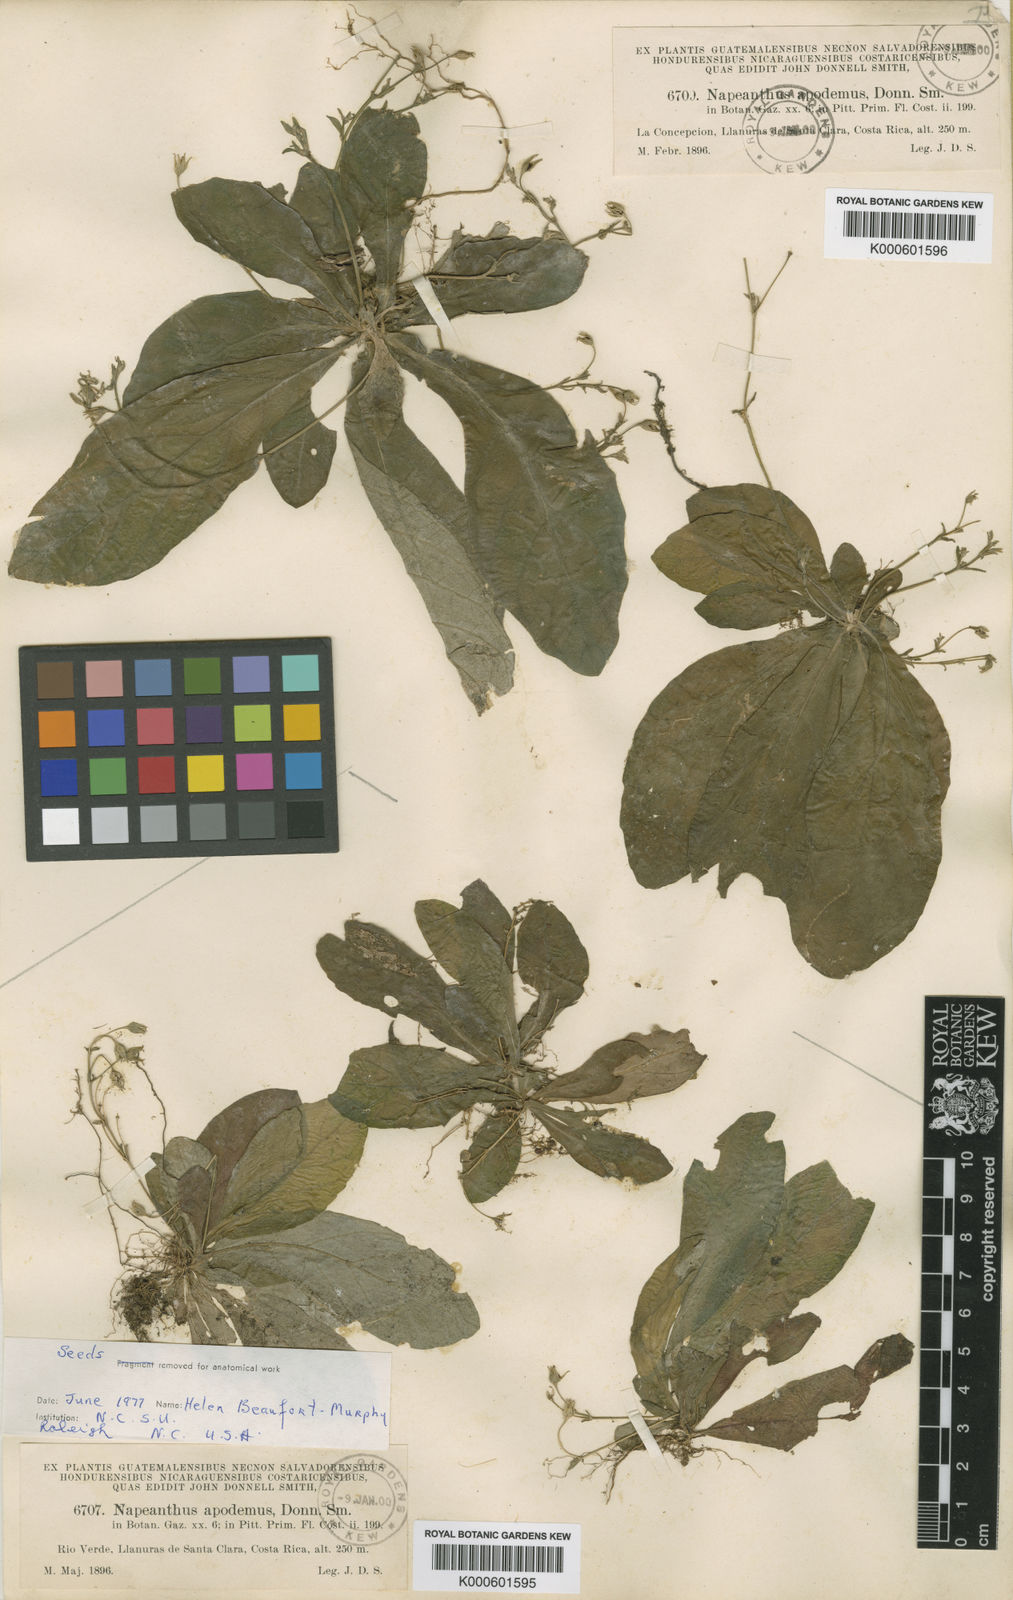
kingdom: Plantae
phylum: Tracheophyta
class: Magnoliopsida
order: Lamiales
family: Gesneriaceae
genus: Napeanthus
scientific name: Napeanthus apodemus
